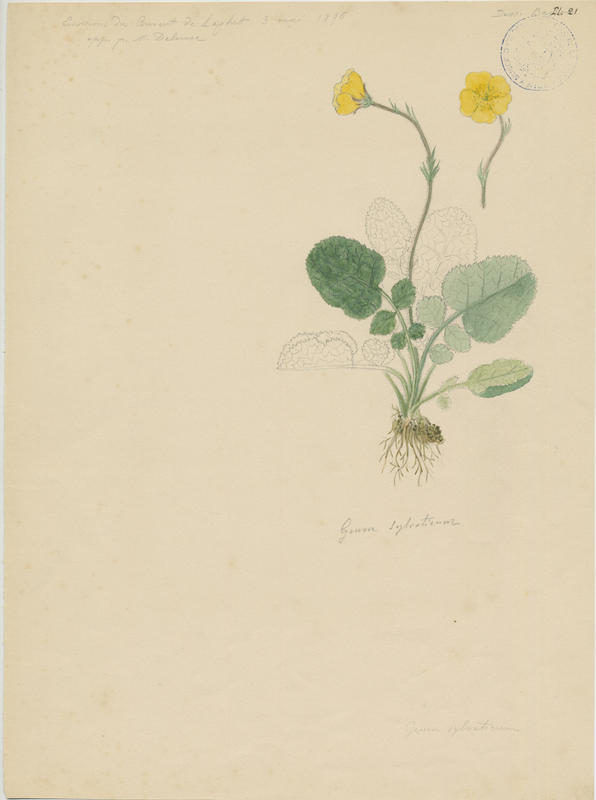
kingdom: Plantae
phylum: Tracheophyta
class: Magnoliopsida
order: Rosales
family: Rosaceae
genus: Geum
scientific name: Geum sylvaticum
